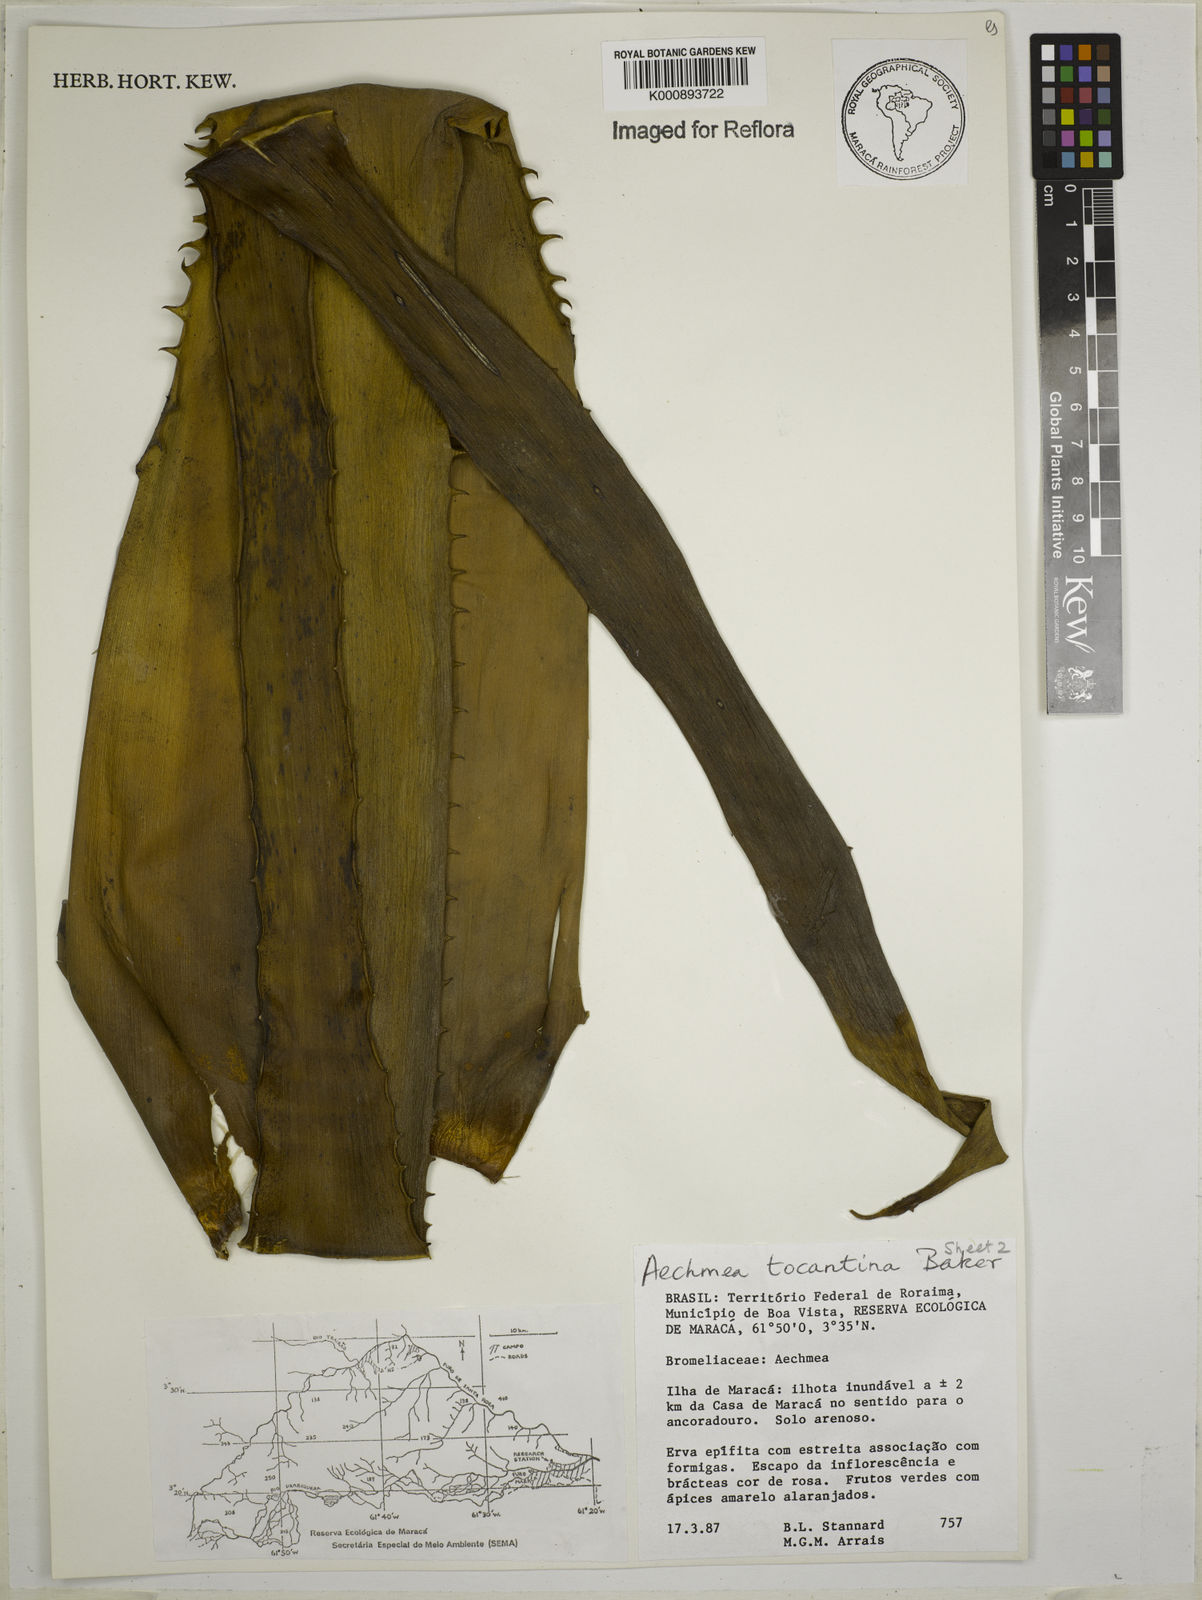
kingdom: Plantae
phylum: Tracheophyta
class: Liliopsida
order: Poales
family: Bromeliaceae
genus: Aechmea
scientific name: Aechmea tocantina
